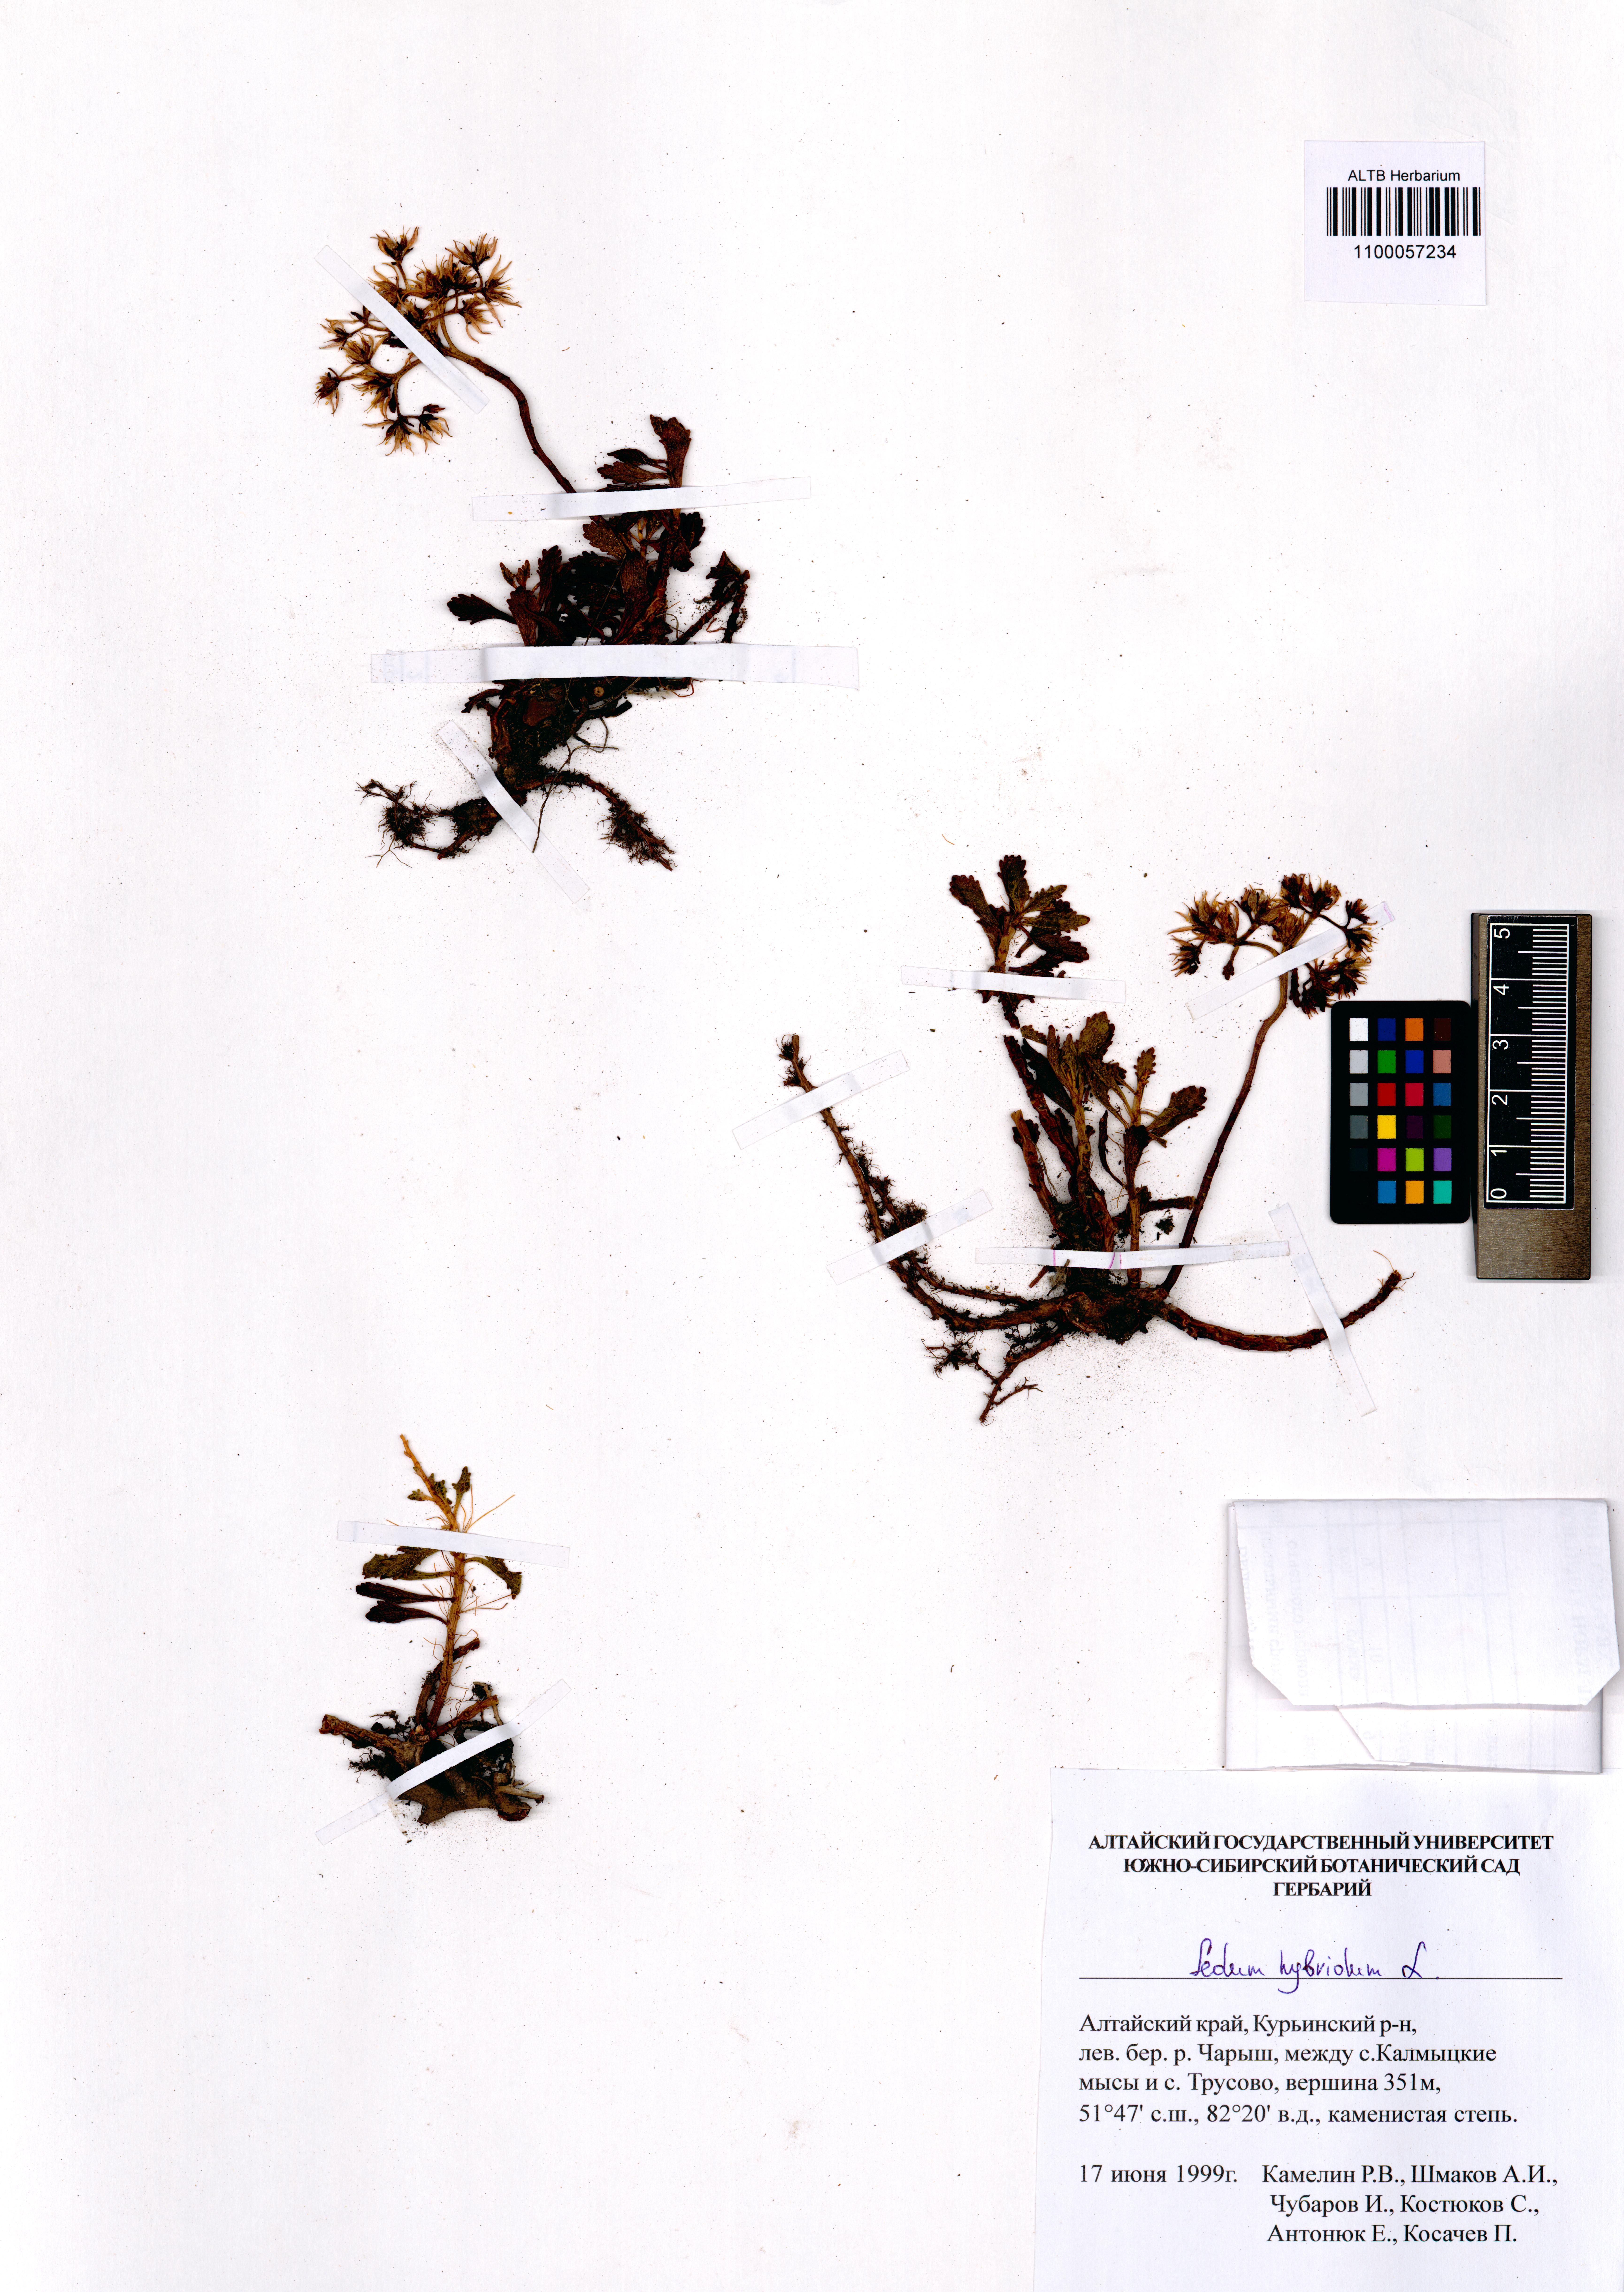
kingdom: Plantae
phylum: Tracheophyta
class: Magnoliopsida
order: Saxifragales
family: Crassulaceae
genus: Phedimus
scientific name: Phedimus hybridus
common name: Hybrid stonecrop
